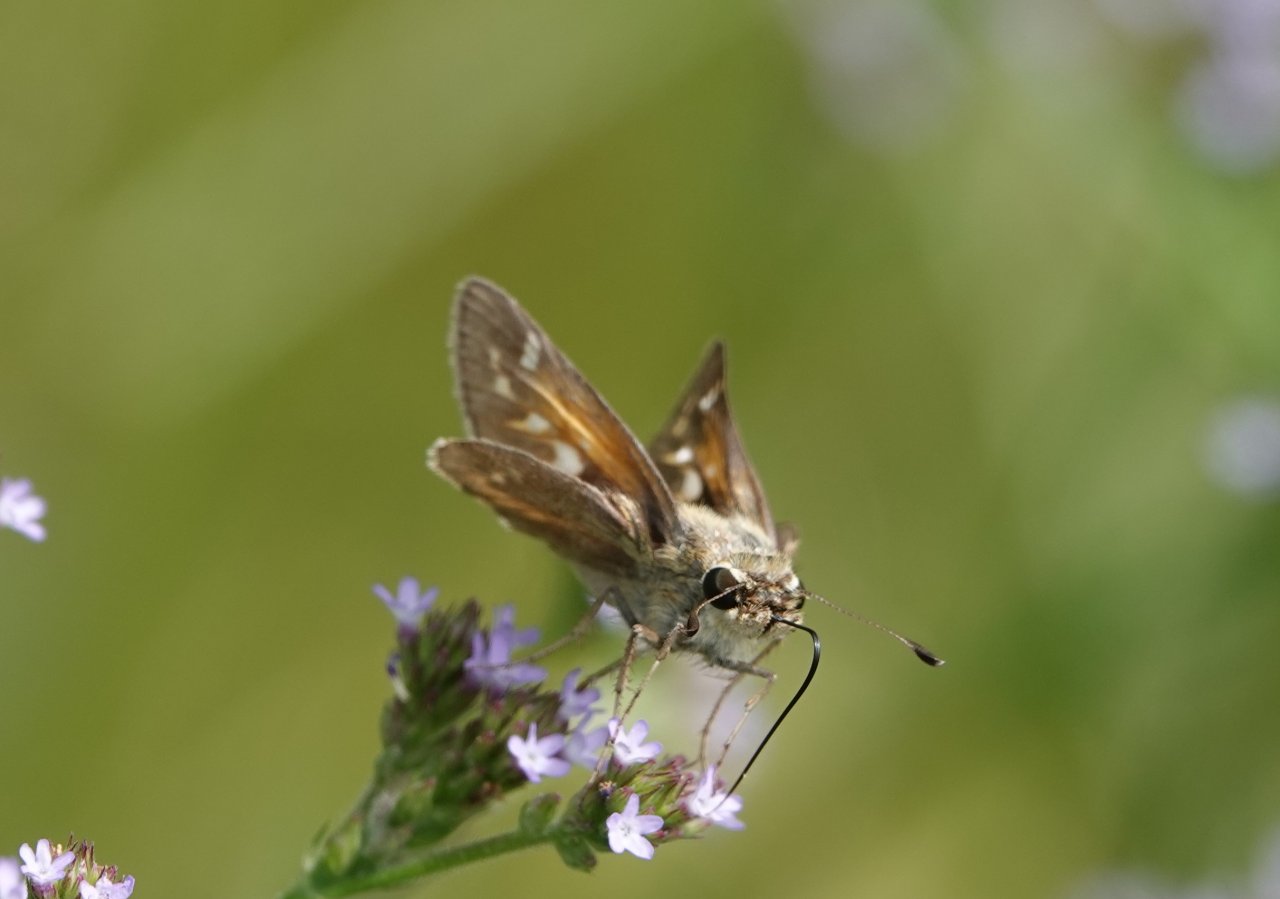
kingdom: Animalia
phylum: Arthropoda
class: Insecta
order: Lepidoptera
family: Hesperiidae
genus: Atalopedes
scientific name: Atalopedes campestris
